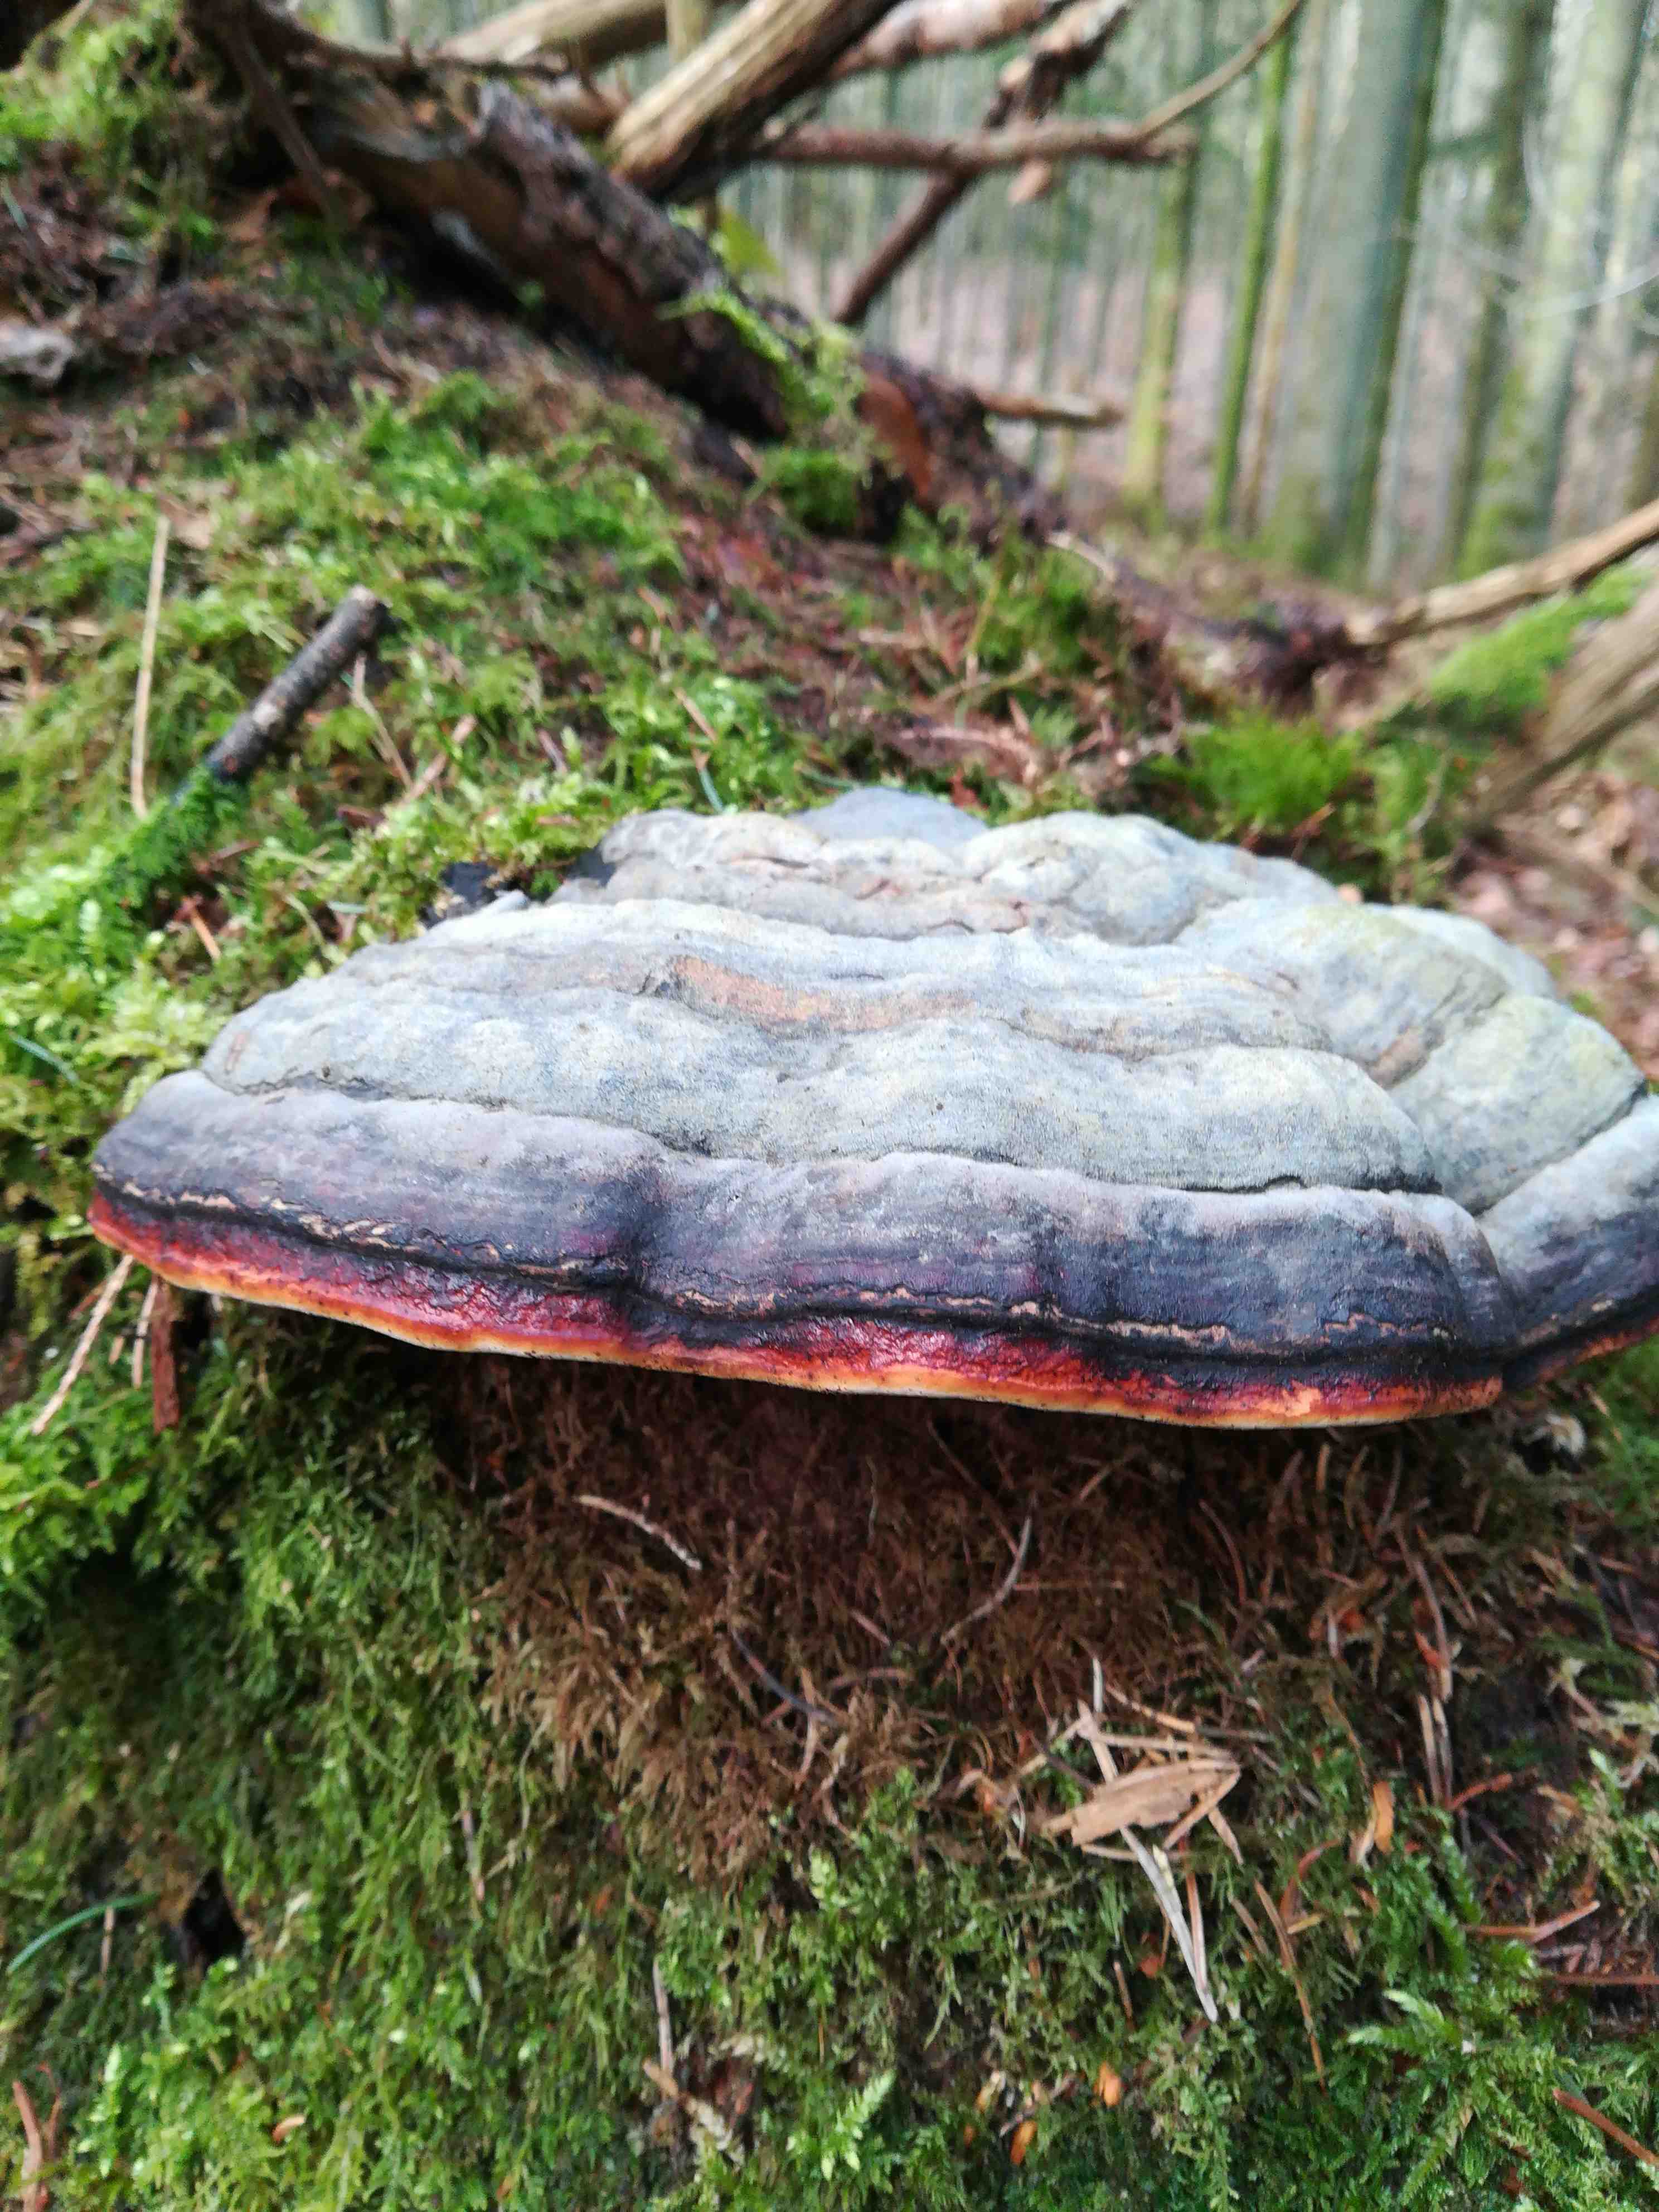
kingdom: Fungi
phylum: Basidiomycota
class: Agaricomycetes
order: Polyporales
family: Fomitopsidaceae
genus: Fomitopsis
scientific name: Fomitopsis pinicola
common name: randbæltet hovporesvamp
